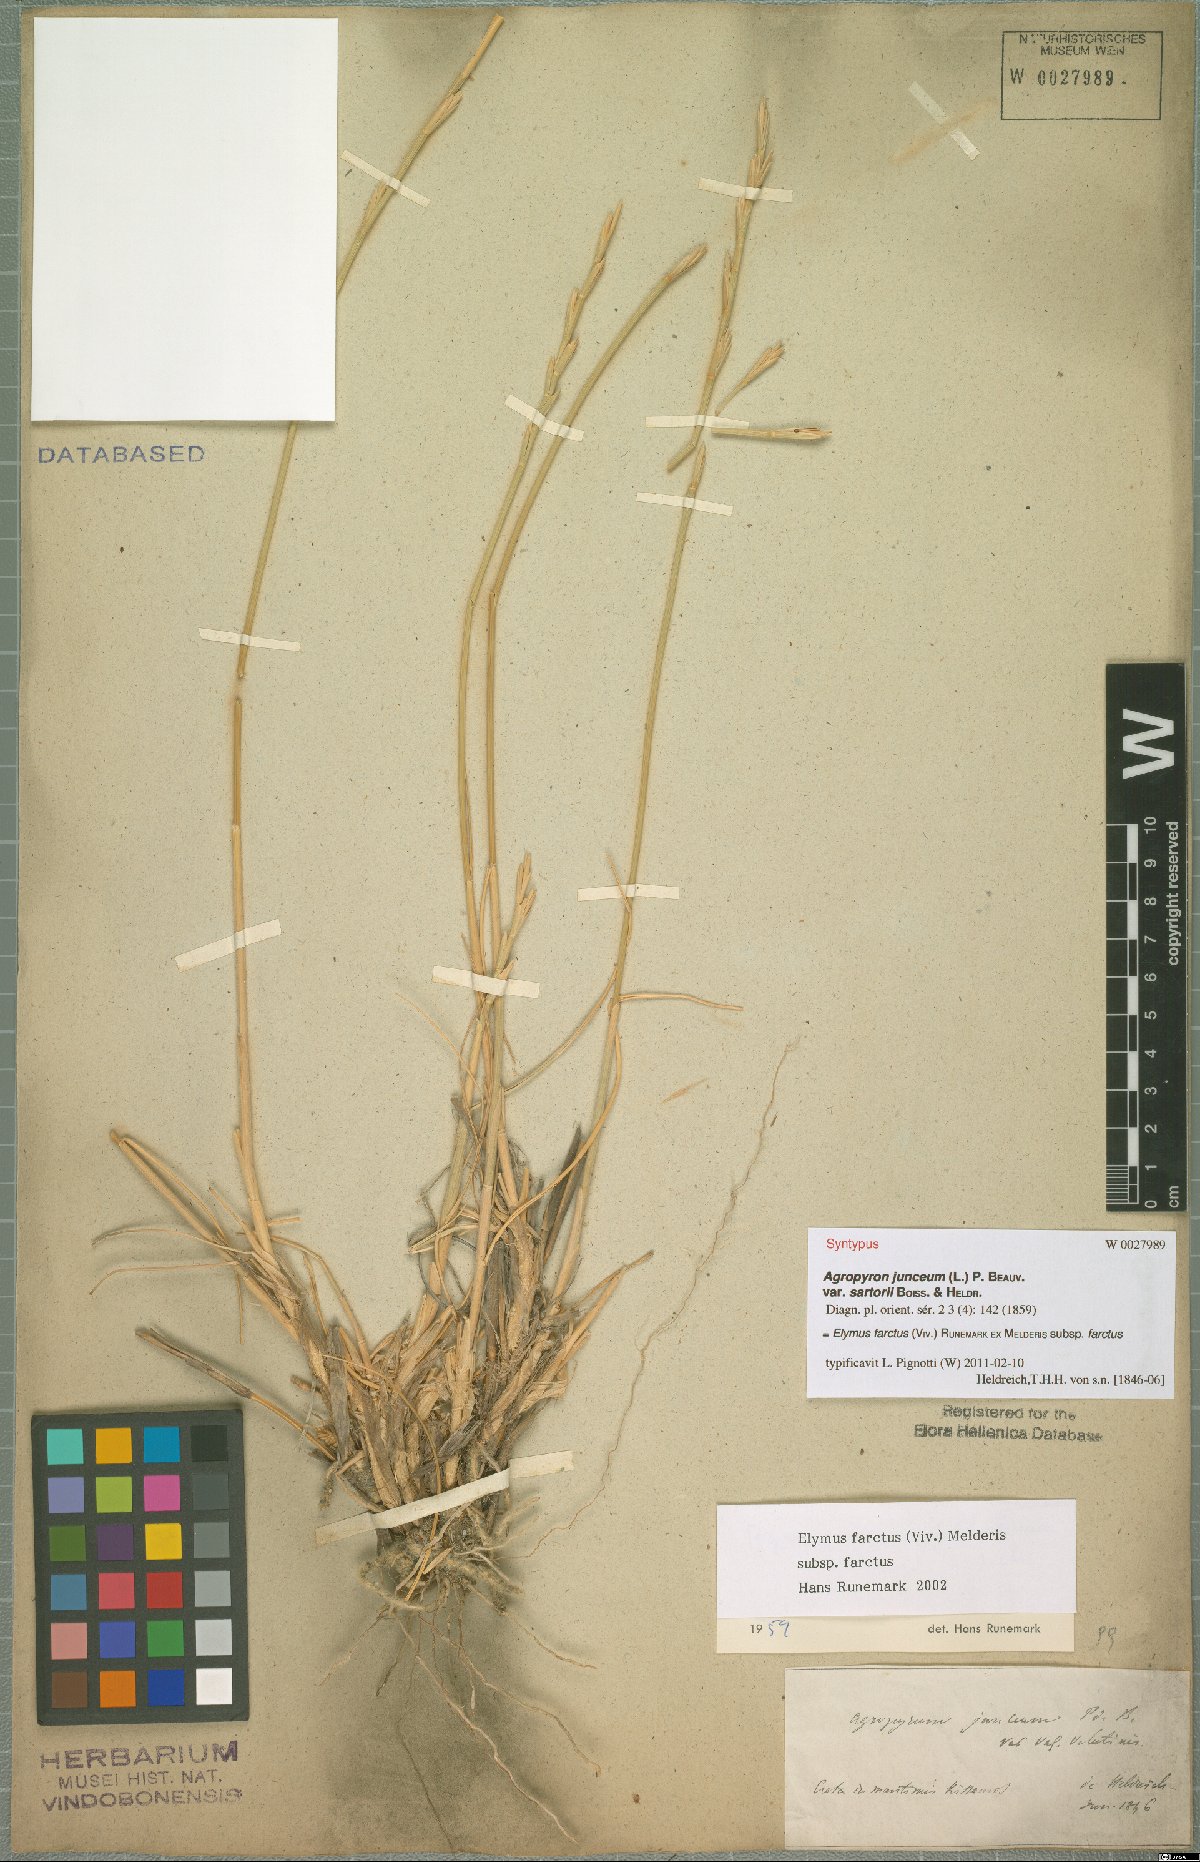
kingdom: Plantae
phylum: Tracheophyta
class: Liliopsida
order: Poales
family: Poaceae
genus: Thinopyrum
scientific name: Thinopyrum junceum
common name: Russian wheatgrass
